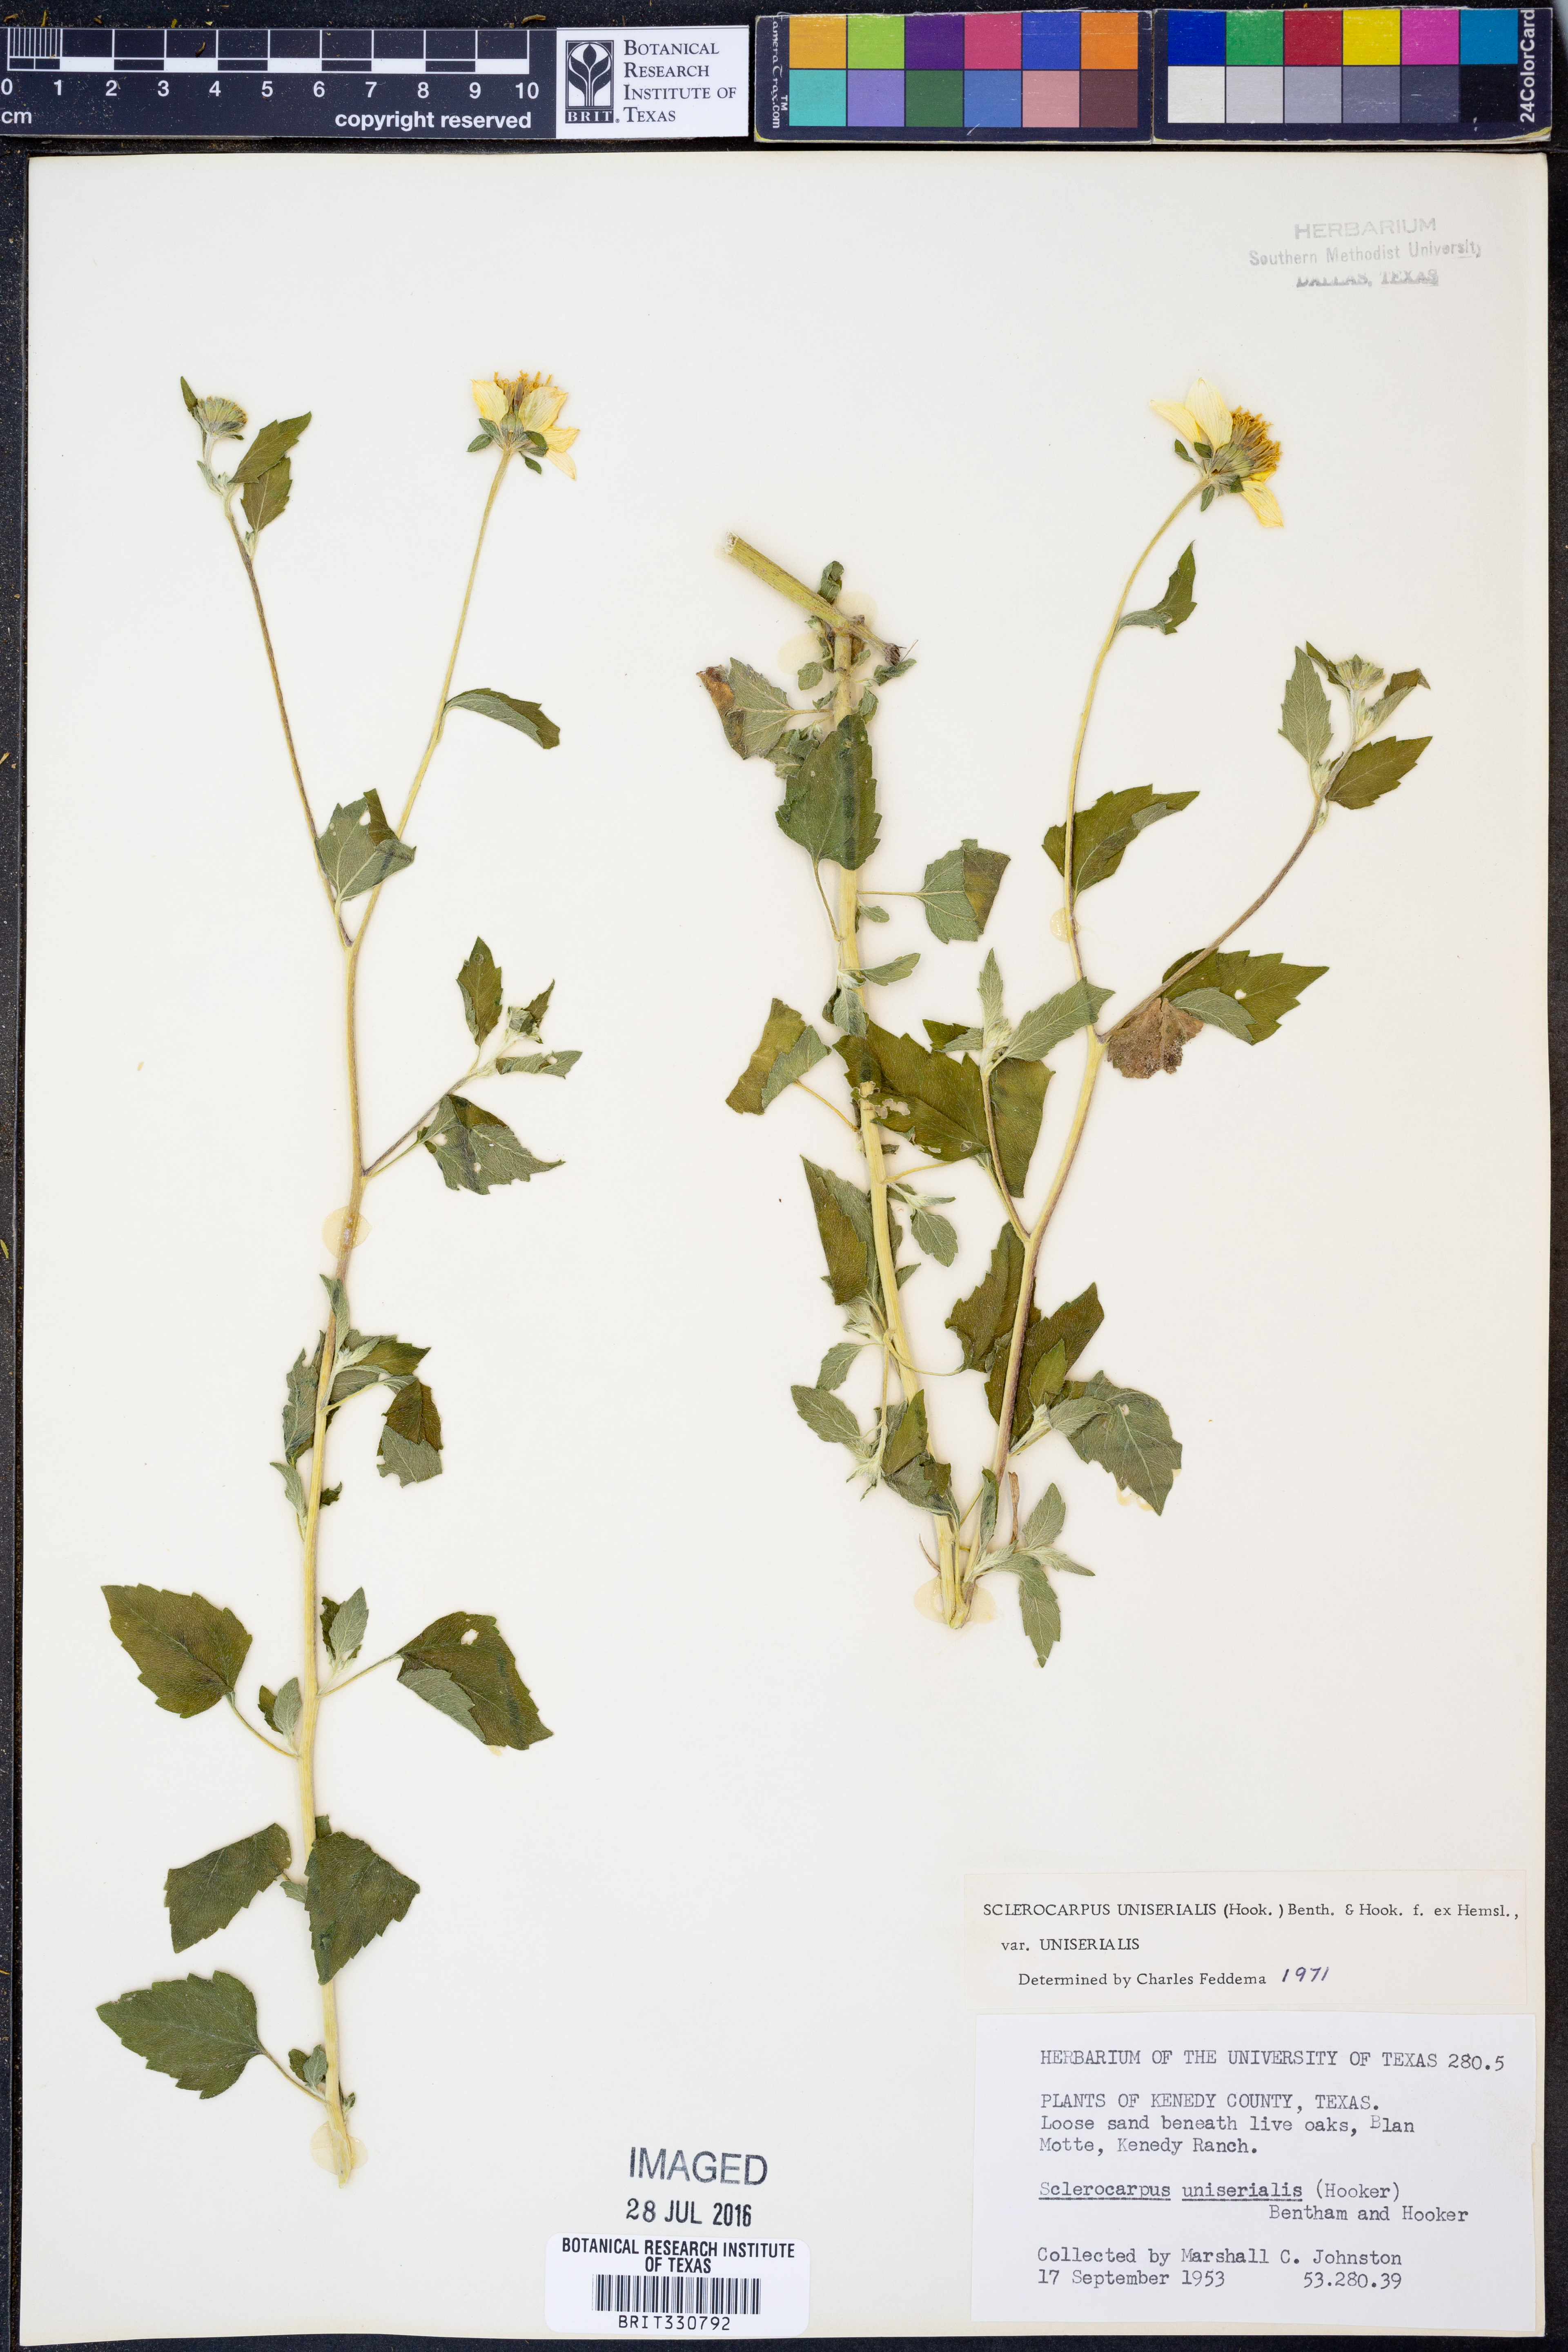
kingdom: Plantae
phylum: Tracheophyta
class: Magnoliopsida
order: Asterales
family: Asteraceae
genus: Sclerocarpus
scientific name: Sclerocarpus uniserialis
